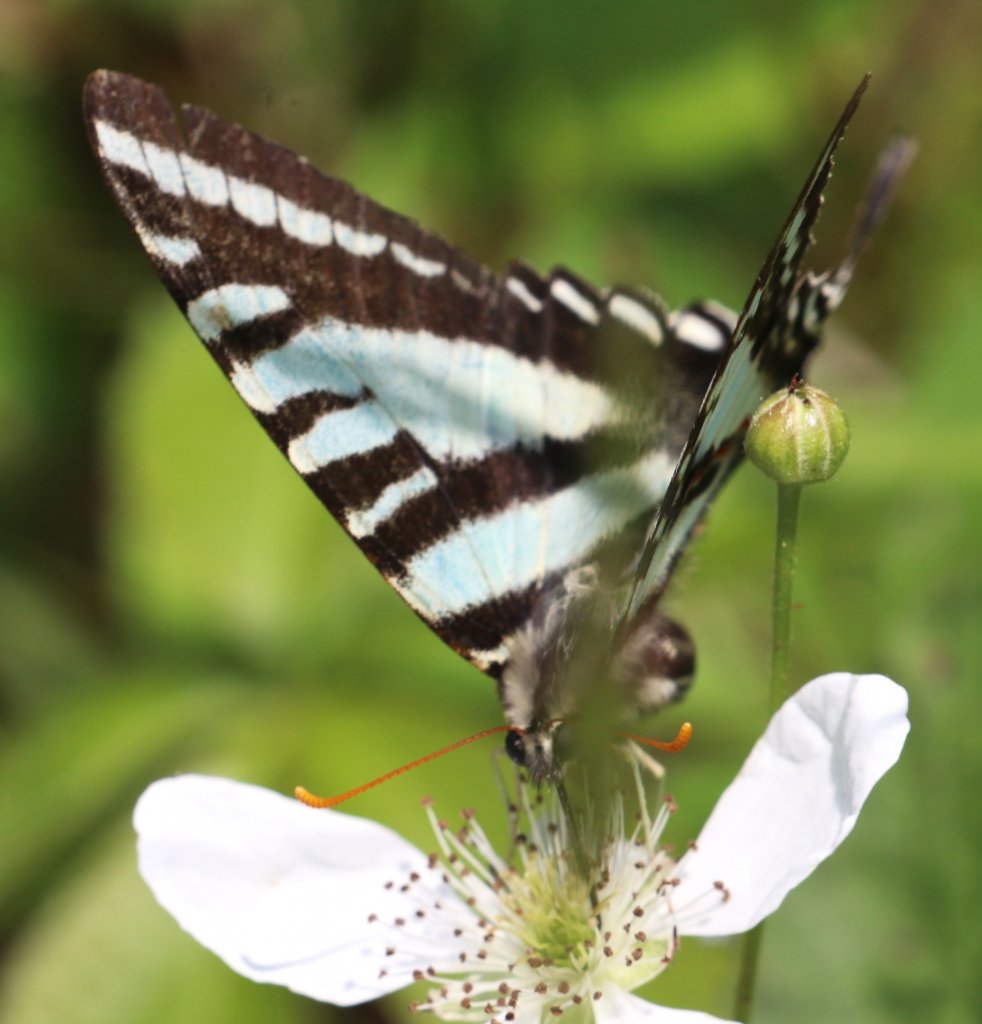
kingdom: Animalia
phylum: Arthropoda
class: Insecta
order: Lepidoptera
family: Papilionidae
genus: Protographium
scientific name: Protographium marcellus
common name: Zebra Swallowtail
